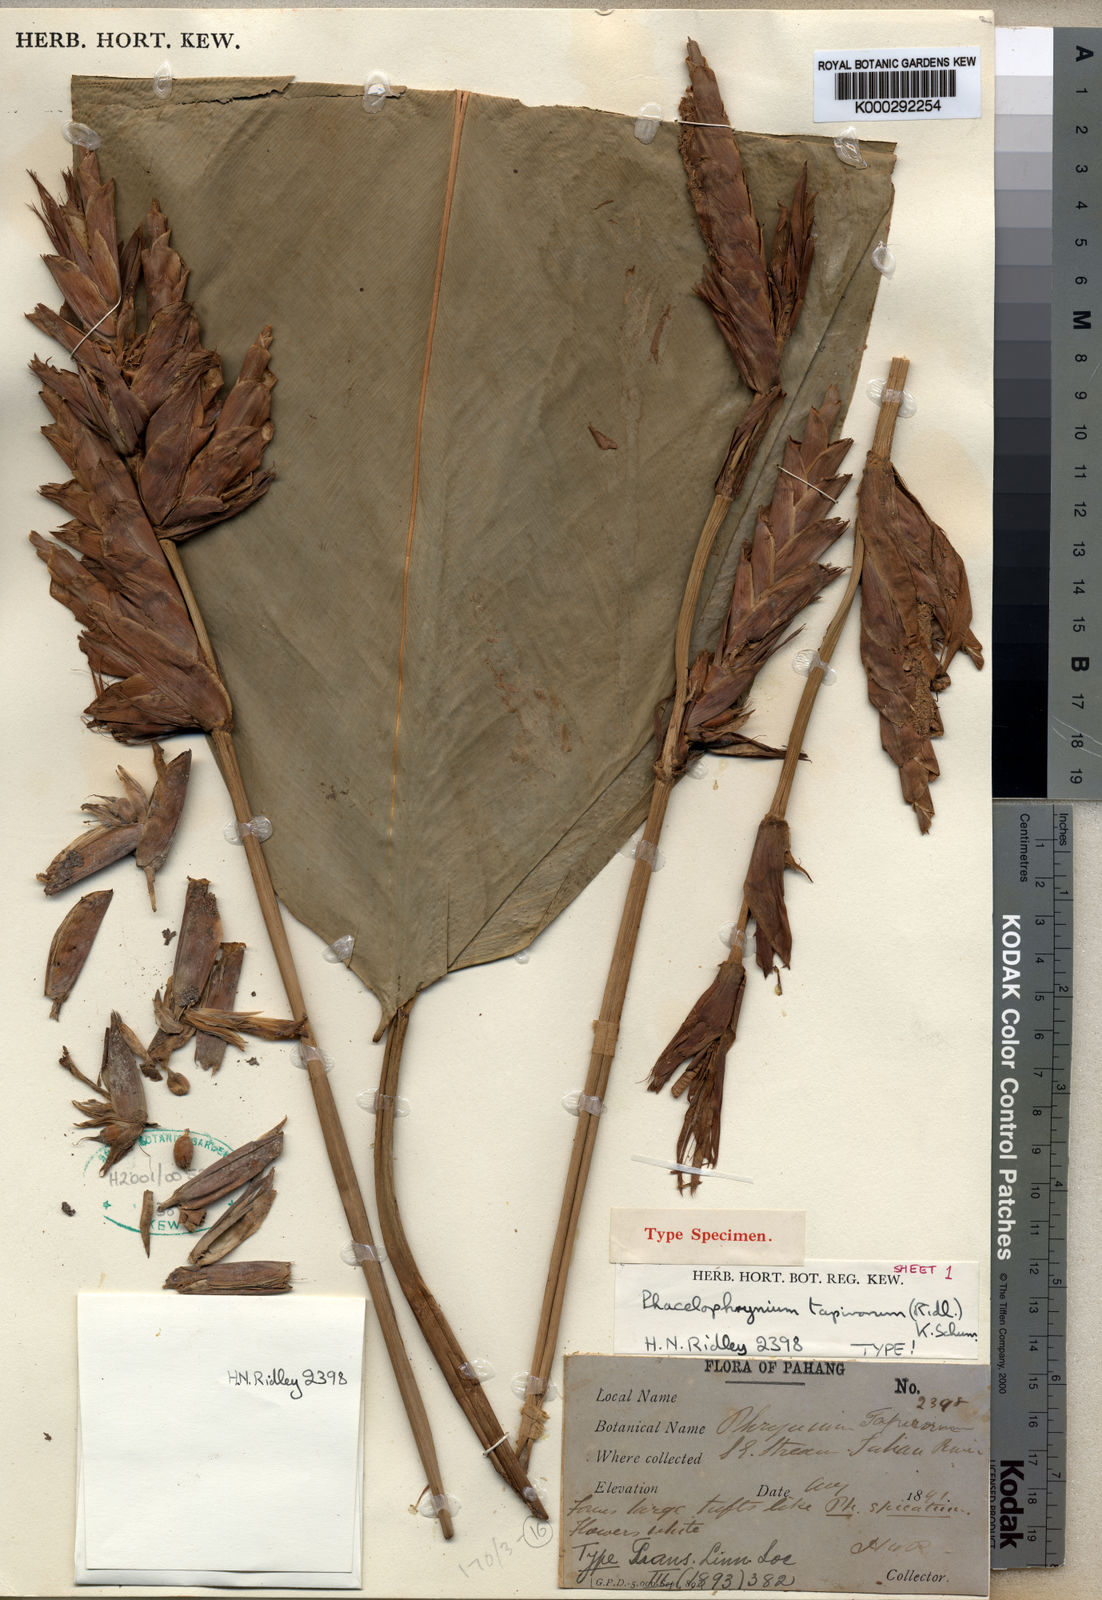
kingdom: Plantae
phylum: Tracheophyta
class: Liliopsida
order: Zingiberales
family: Marantaceae
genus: Phrynium
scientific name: Phrynium maximum
